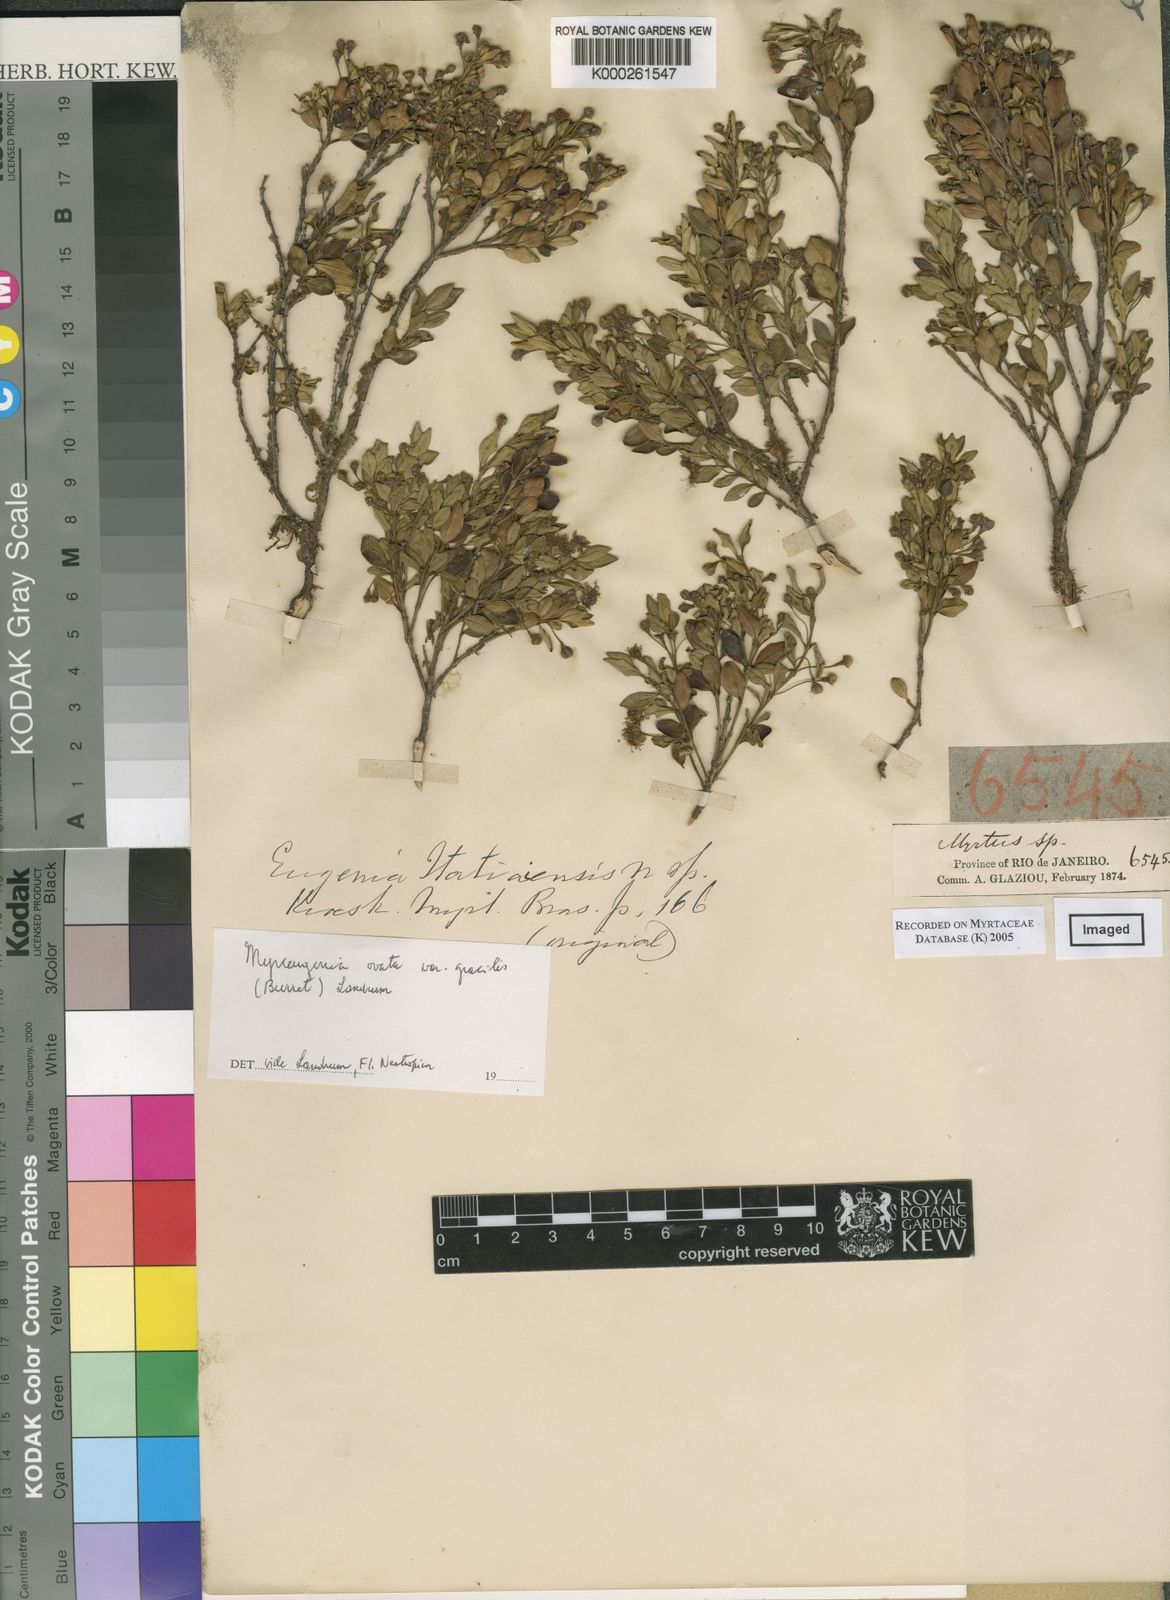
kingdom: Plantae
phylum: Tracheophyta
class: Magnoliopsida
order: Myrtales
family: Myrtaceae
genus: Myrceugenia
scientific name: Myrceugenia ovata
